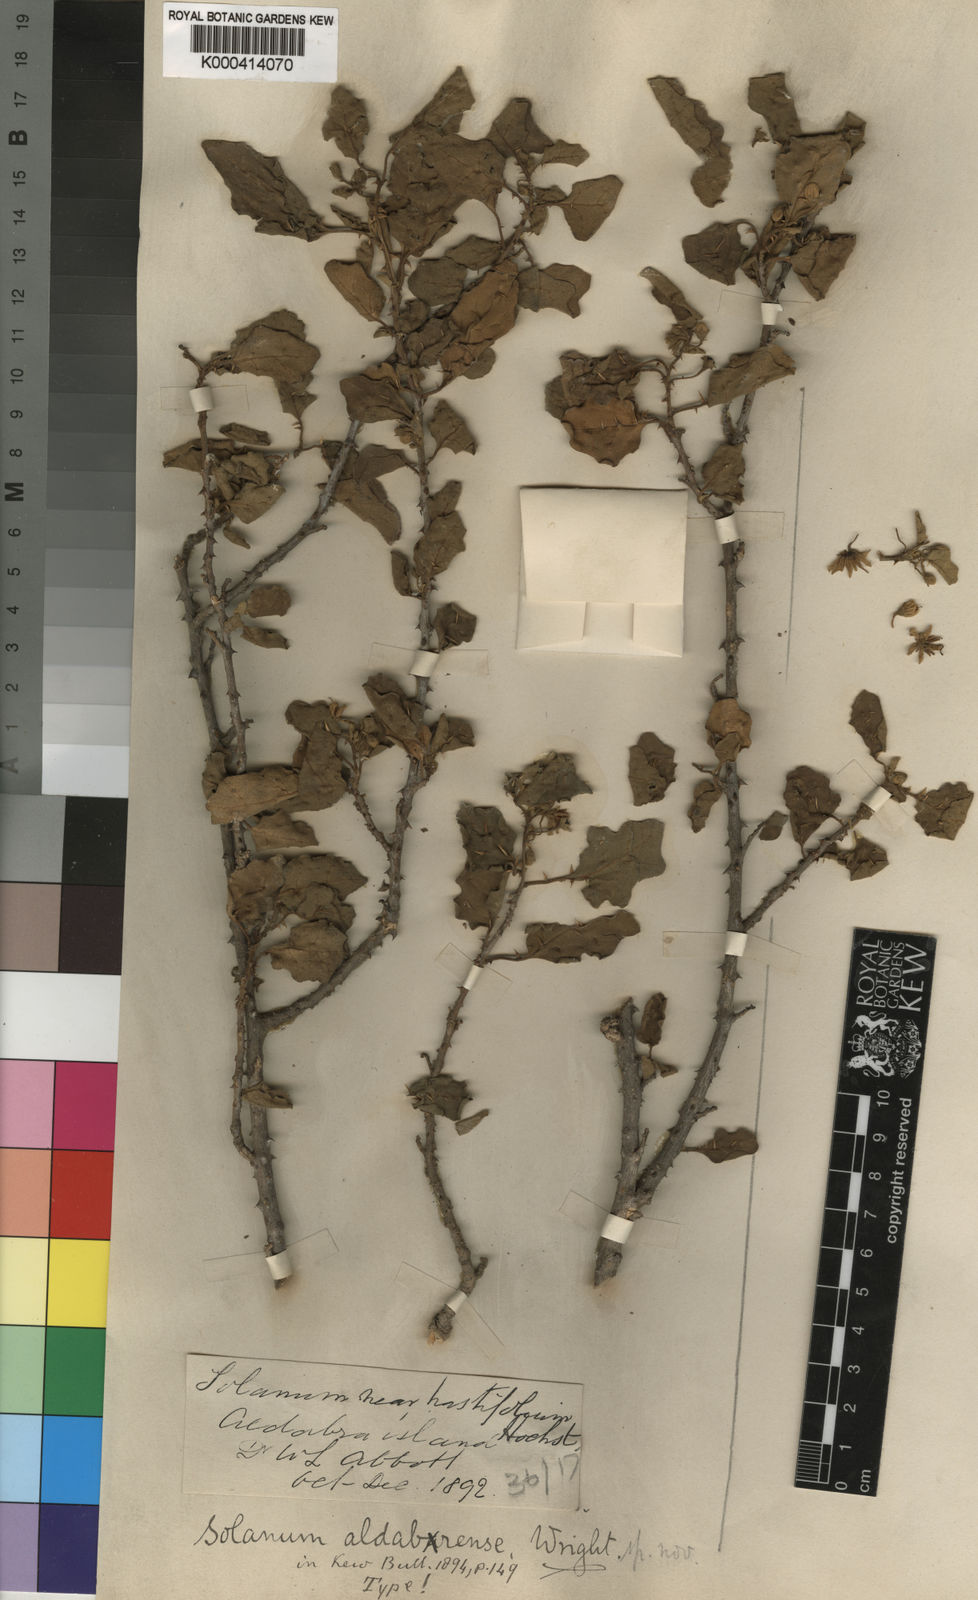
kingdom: Plantae
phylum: Tracheophyta
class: Magnoliopsida
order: Solanales
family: Solanaceae
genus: Solanum
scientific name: Solanum aldabrense
